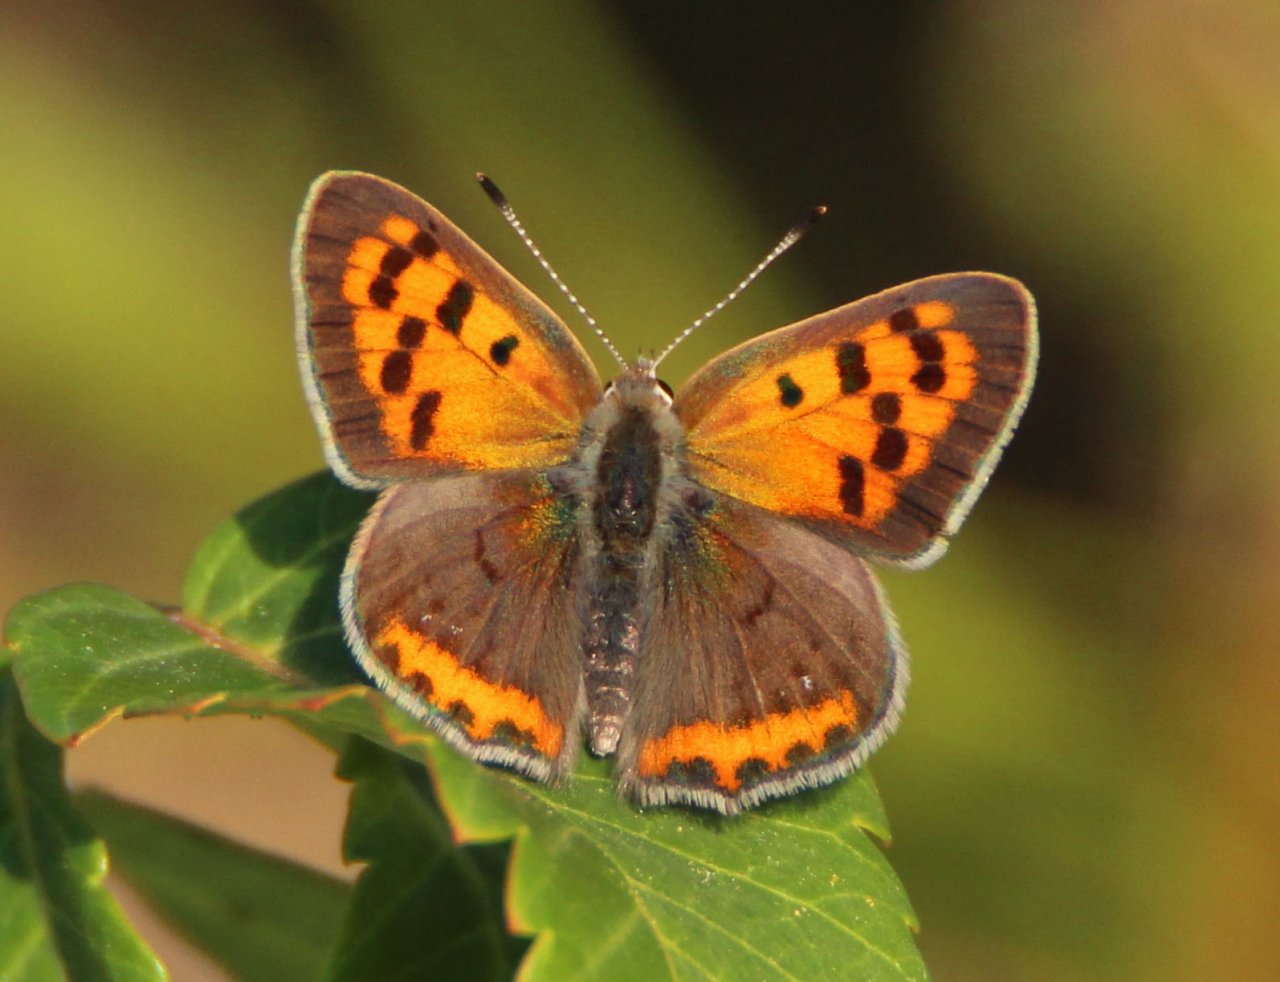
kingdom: Animalia
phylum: Arthropoda
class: Insecta
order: Lepidoptera
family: Lycaenidae
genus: Lycaena
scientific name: Lycaena phlaeas
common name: American Copper
